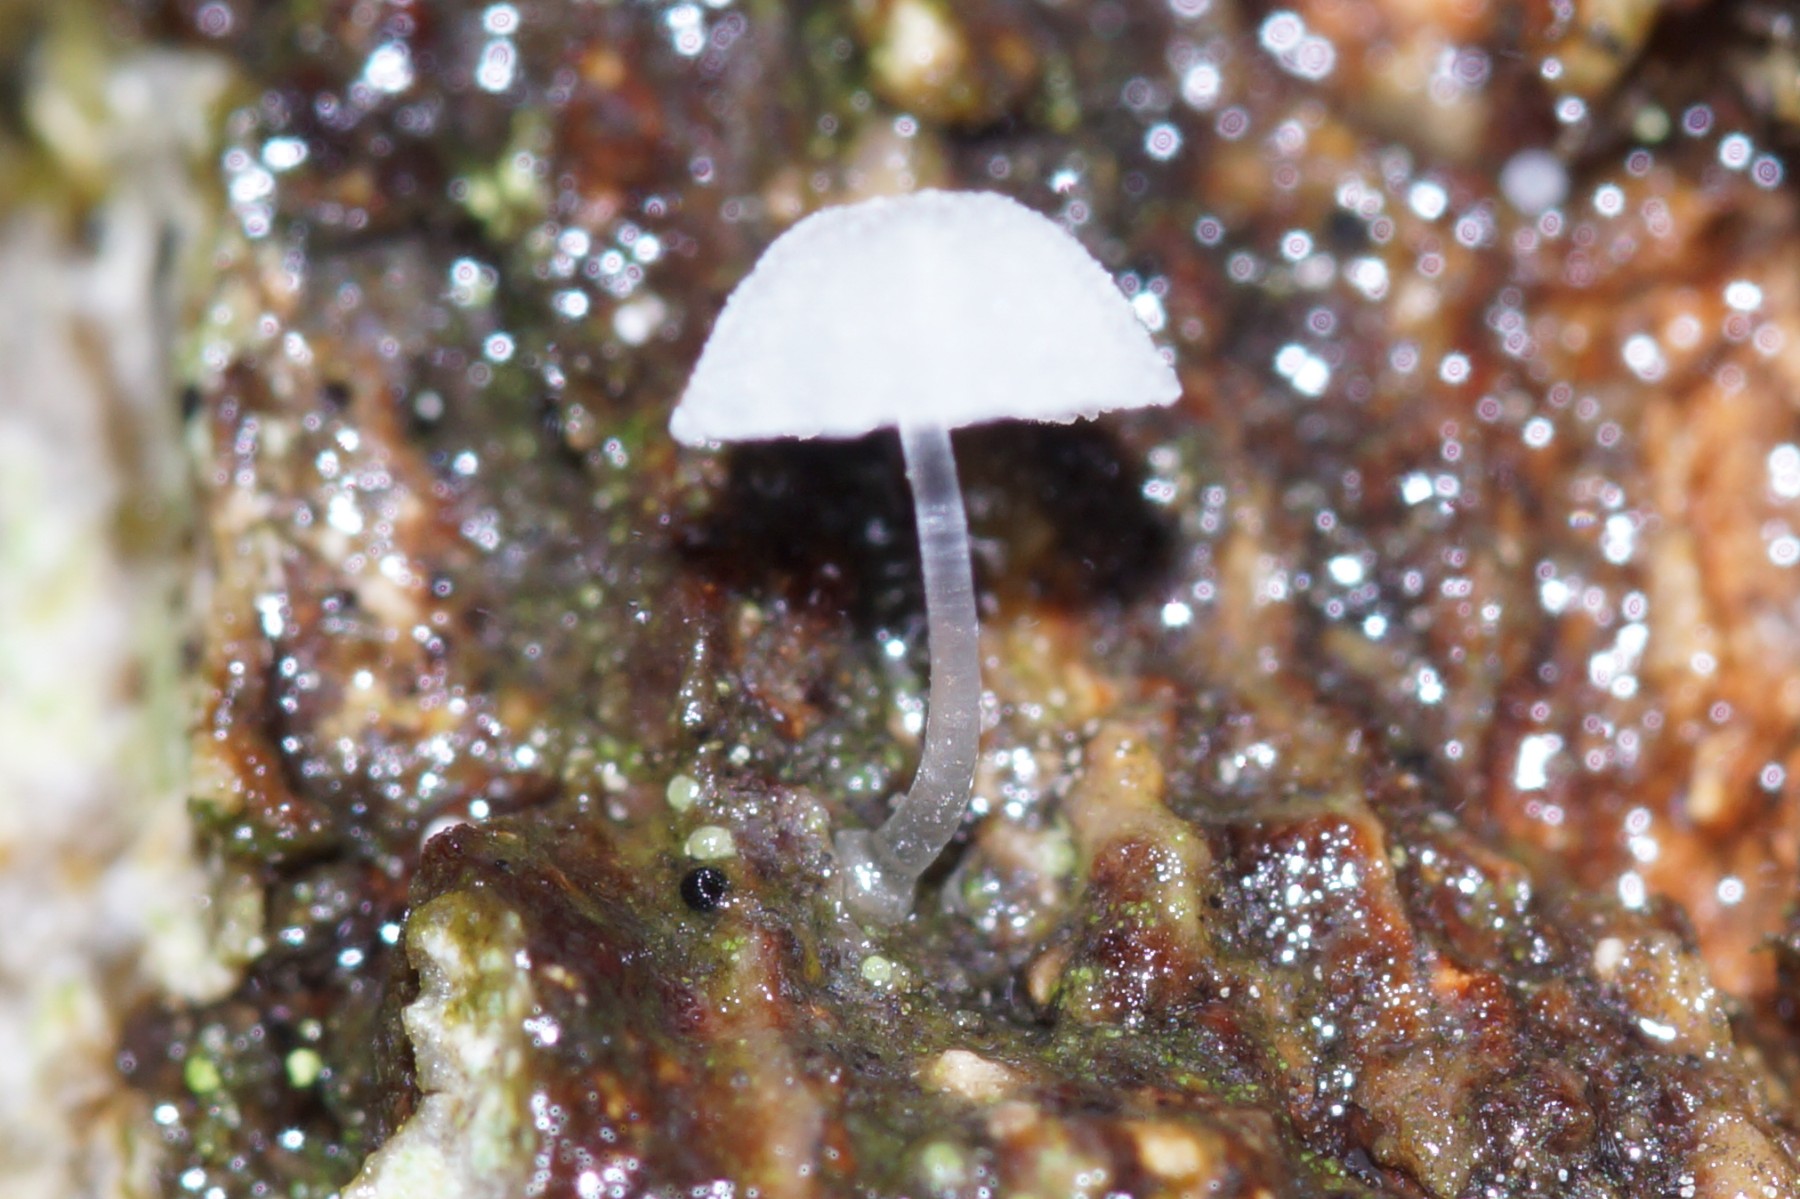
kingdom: Fungi
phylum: Basidiomycota
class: Agaricomycetes
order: Agaricales
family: Mycenaceae
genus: Mycena
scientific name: Mycena tenerrima
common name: pudret huesvamp
